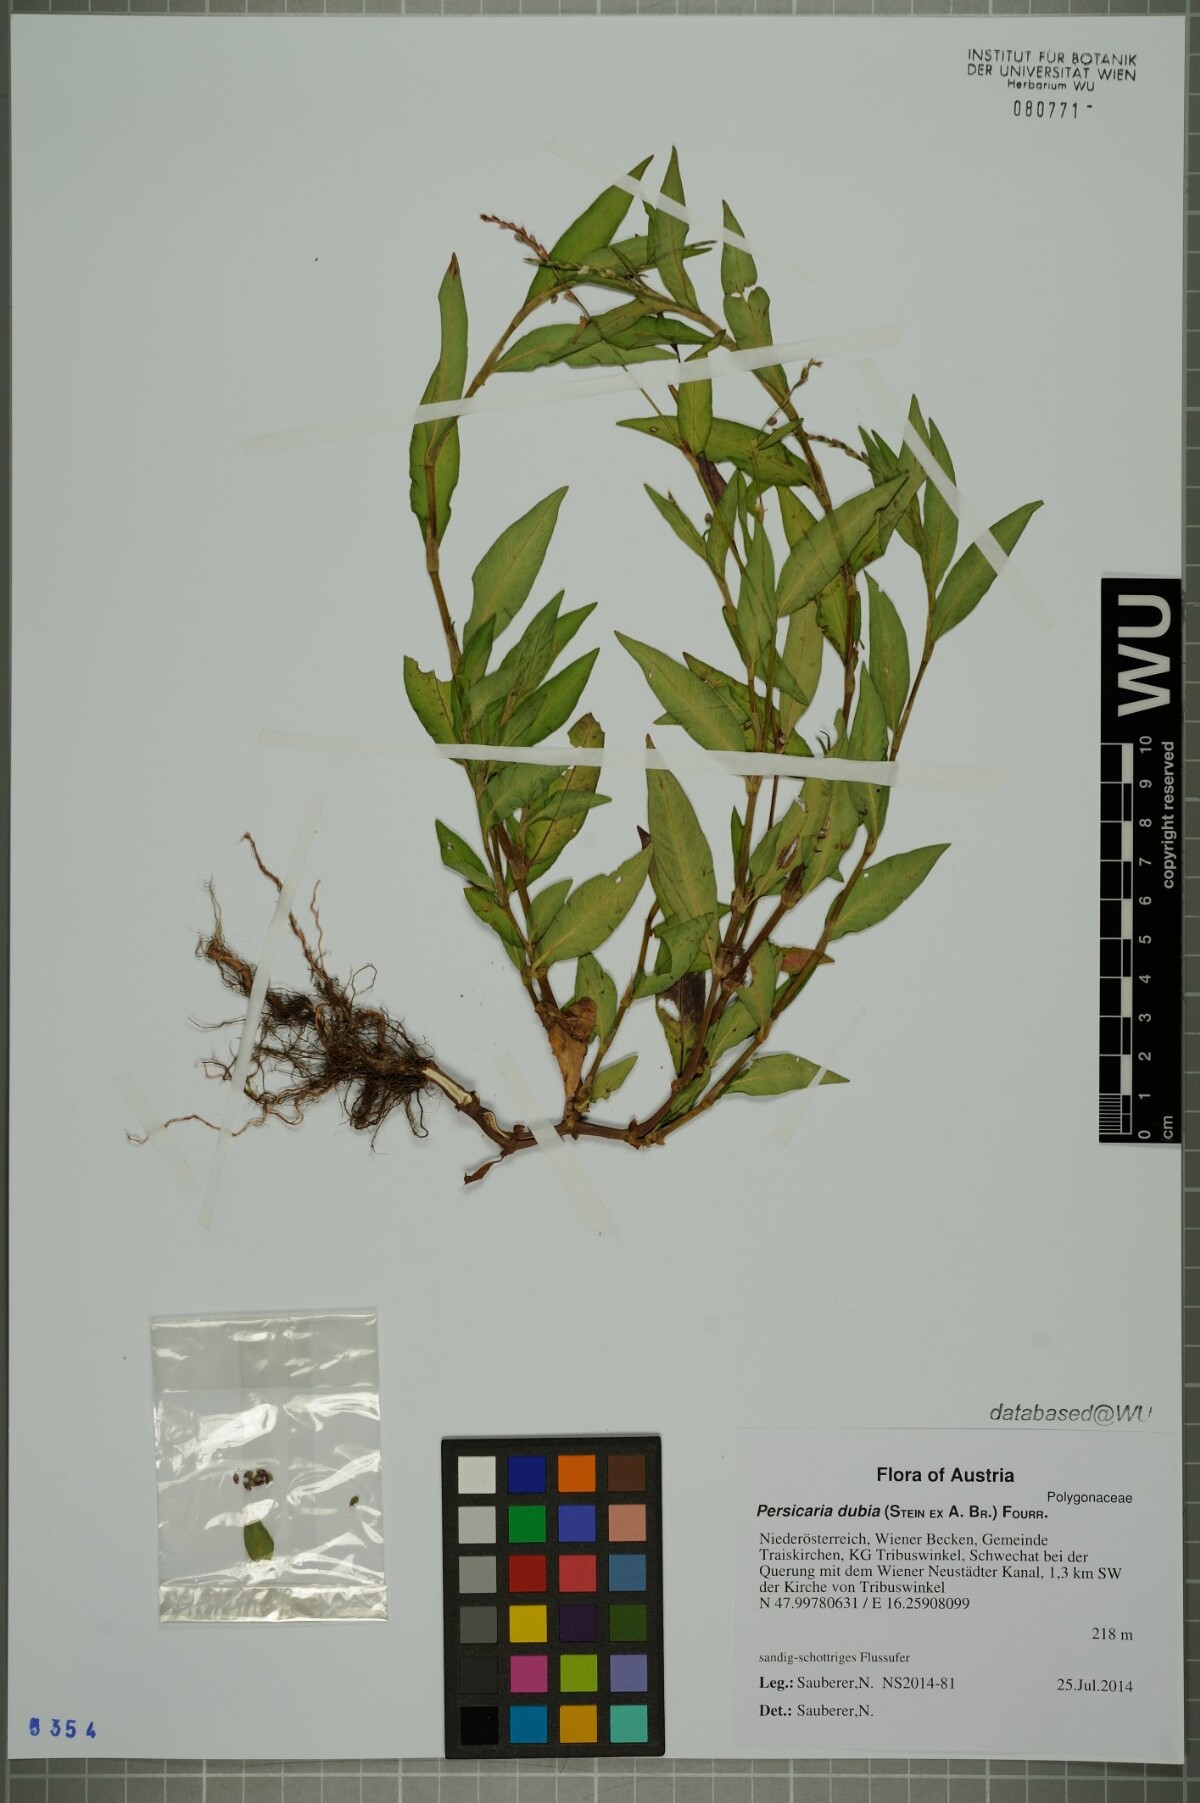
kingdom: Plantae
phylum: Tracheophyta
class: Magnoliopsida
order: Caryophyllales
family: Polygonaceae
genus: Persicaria
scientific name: Persicaria mitis
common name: Tasteless water-pepper
